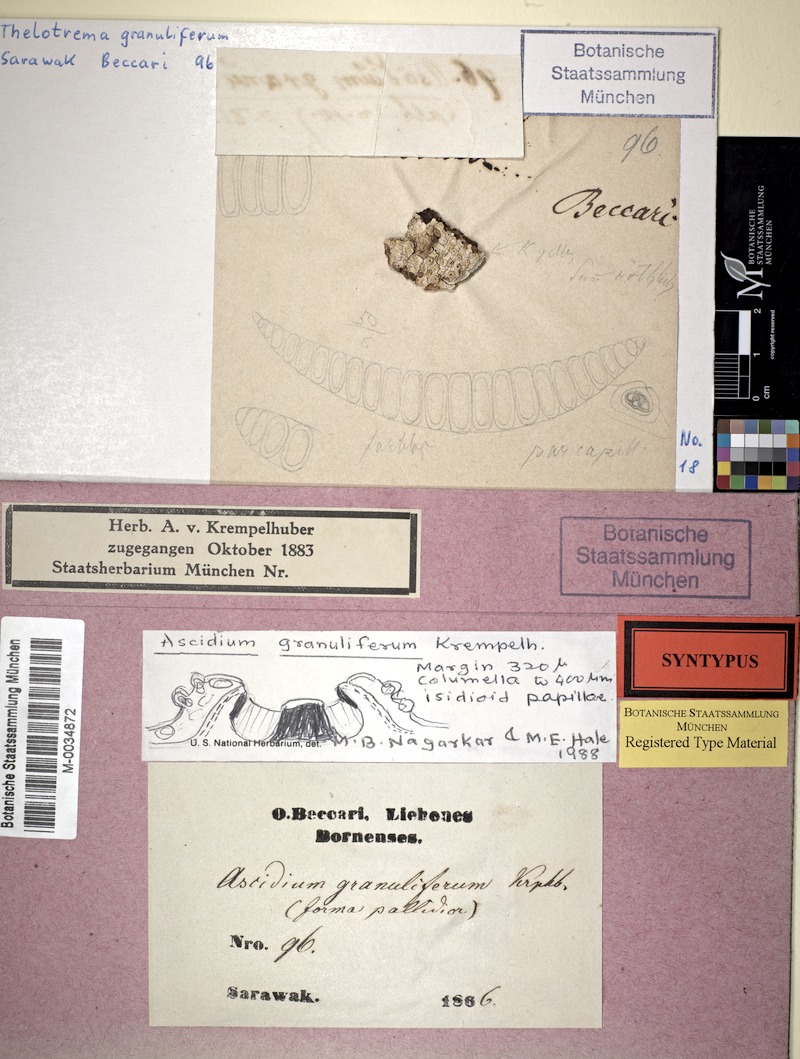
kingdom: Fungi
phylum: Ascomycota
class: Lecanoromycetes
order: Ostropales
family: Graphidaceae
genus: Ocellularia
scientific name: Ocellularia granulifera
